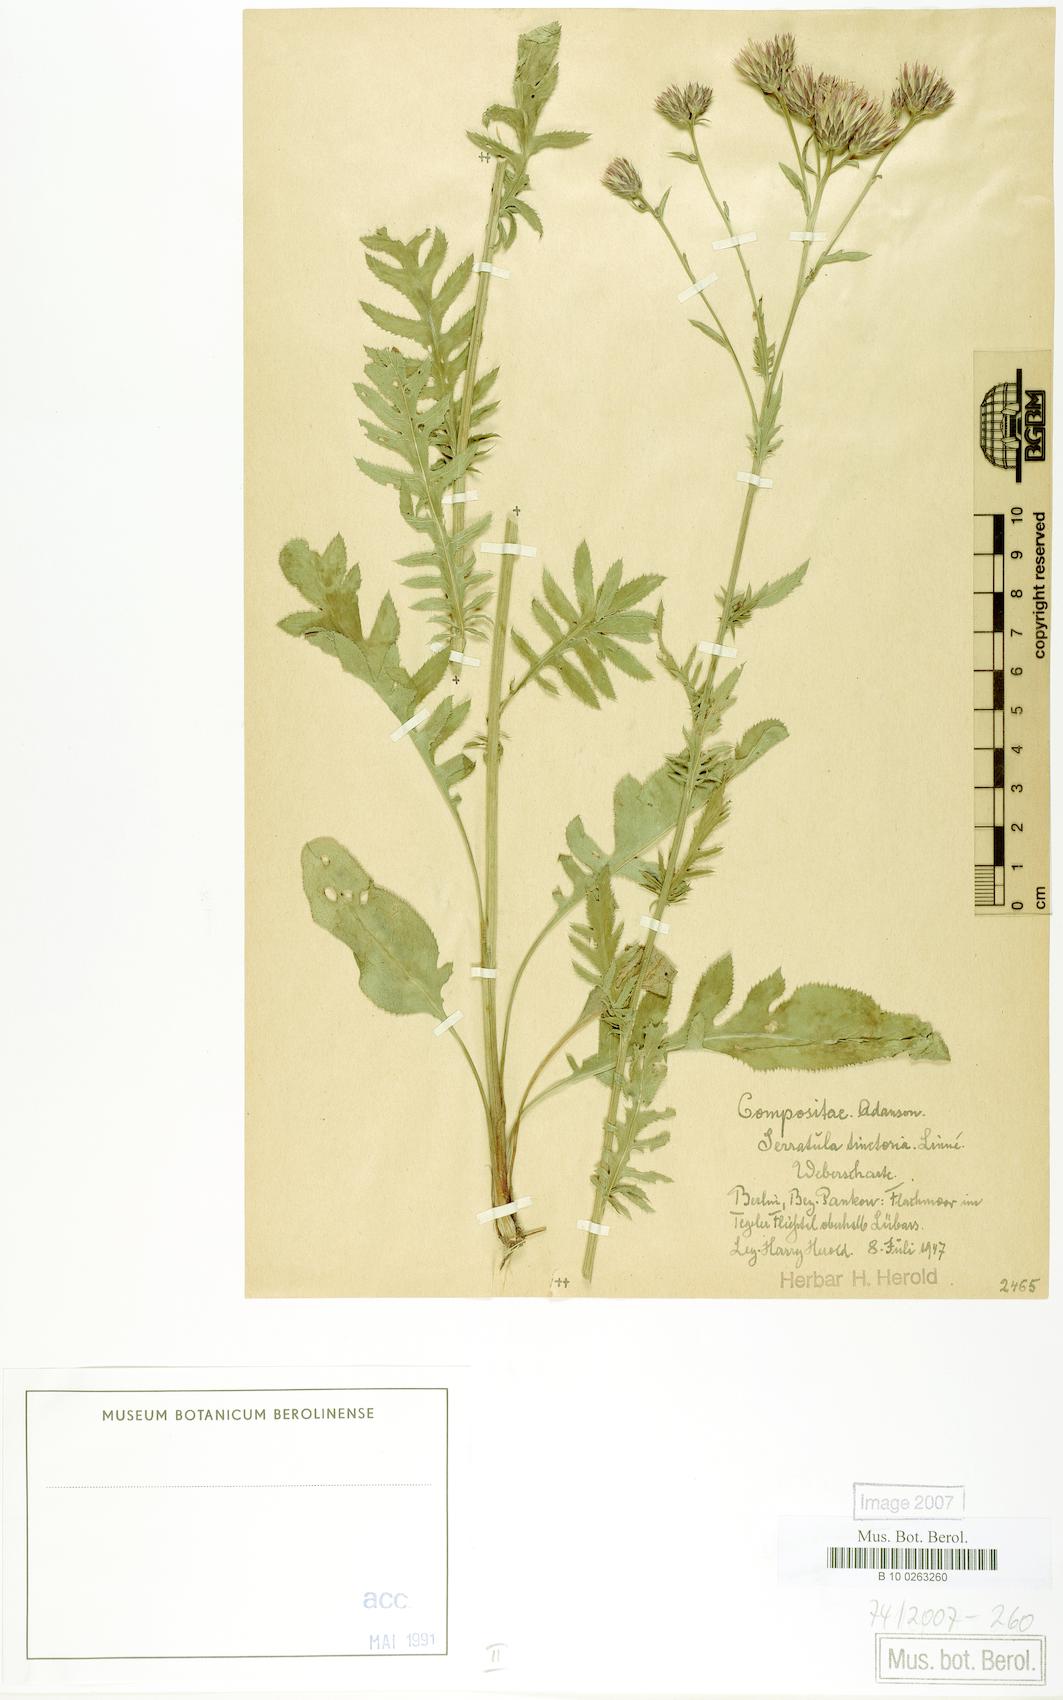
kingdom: Plantae
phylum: Tracheophyta
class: Magnoliopsida
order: Asterales
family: Asteraceae
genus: Serratula
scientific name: Serratula tinctoria
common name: Saw-wort
